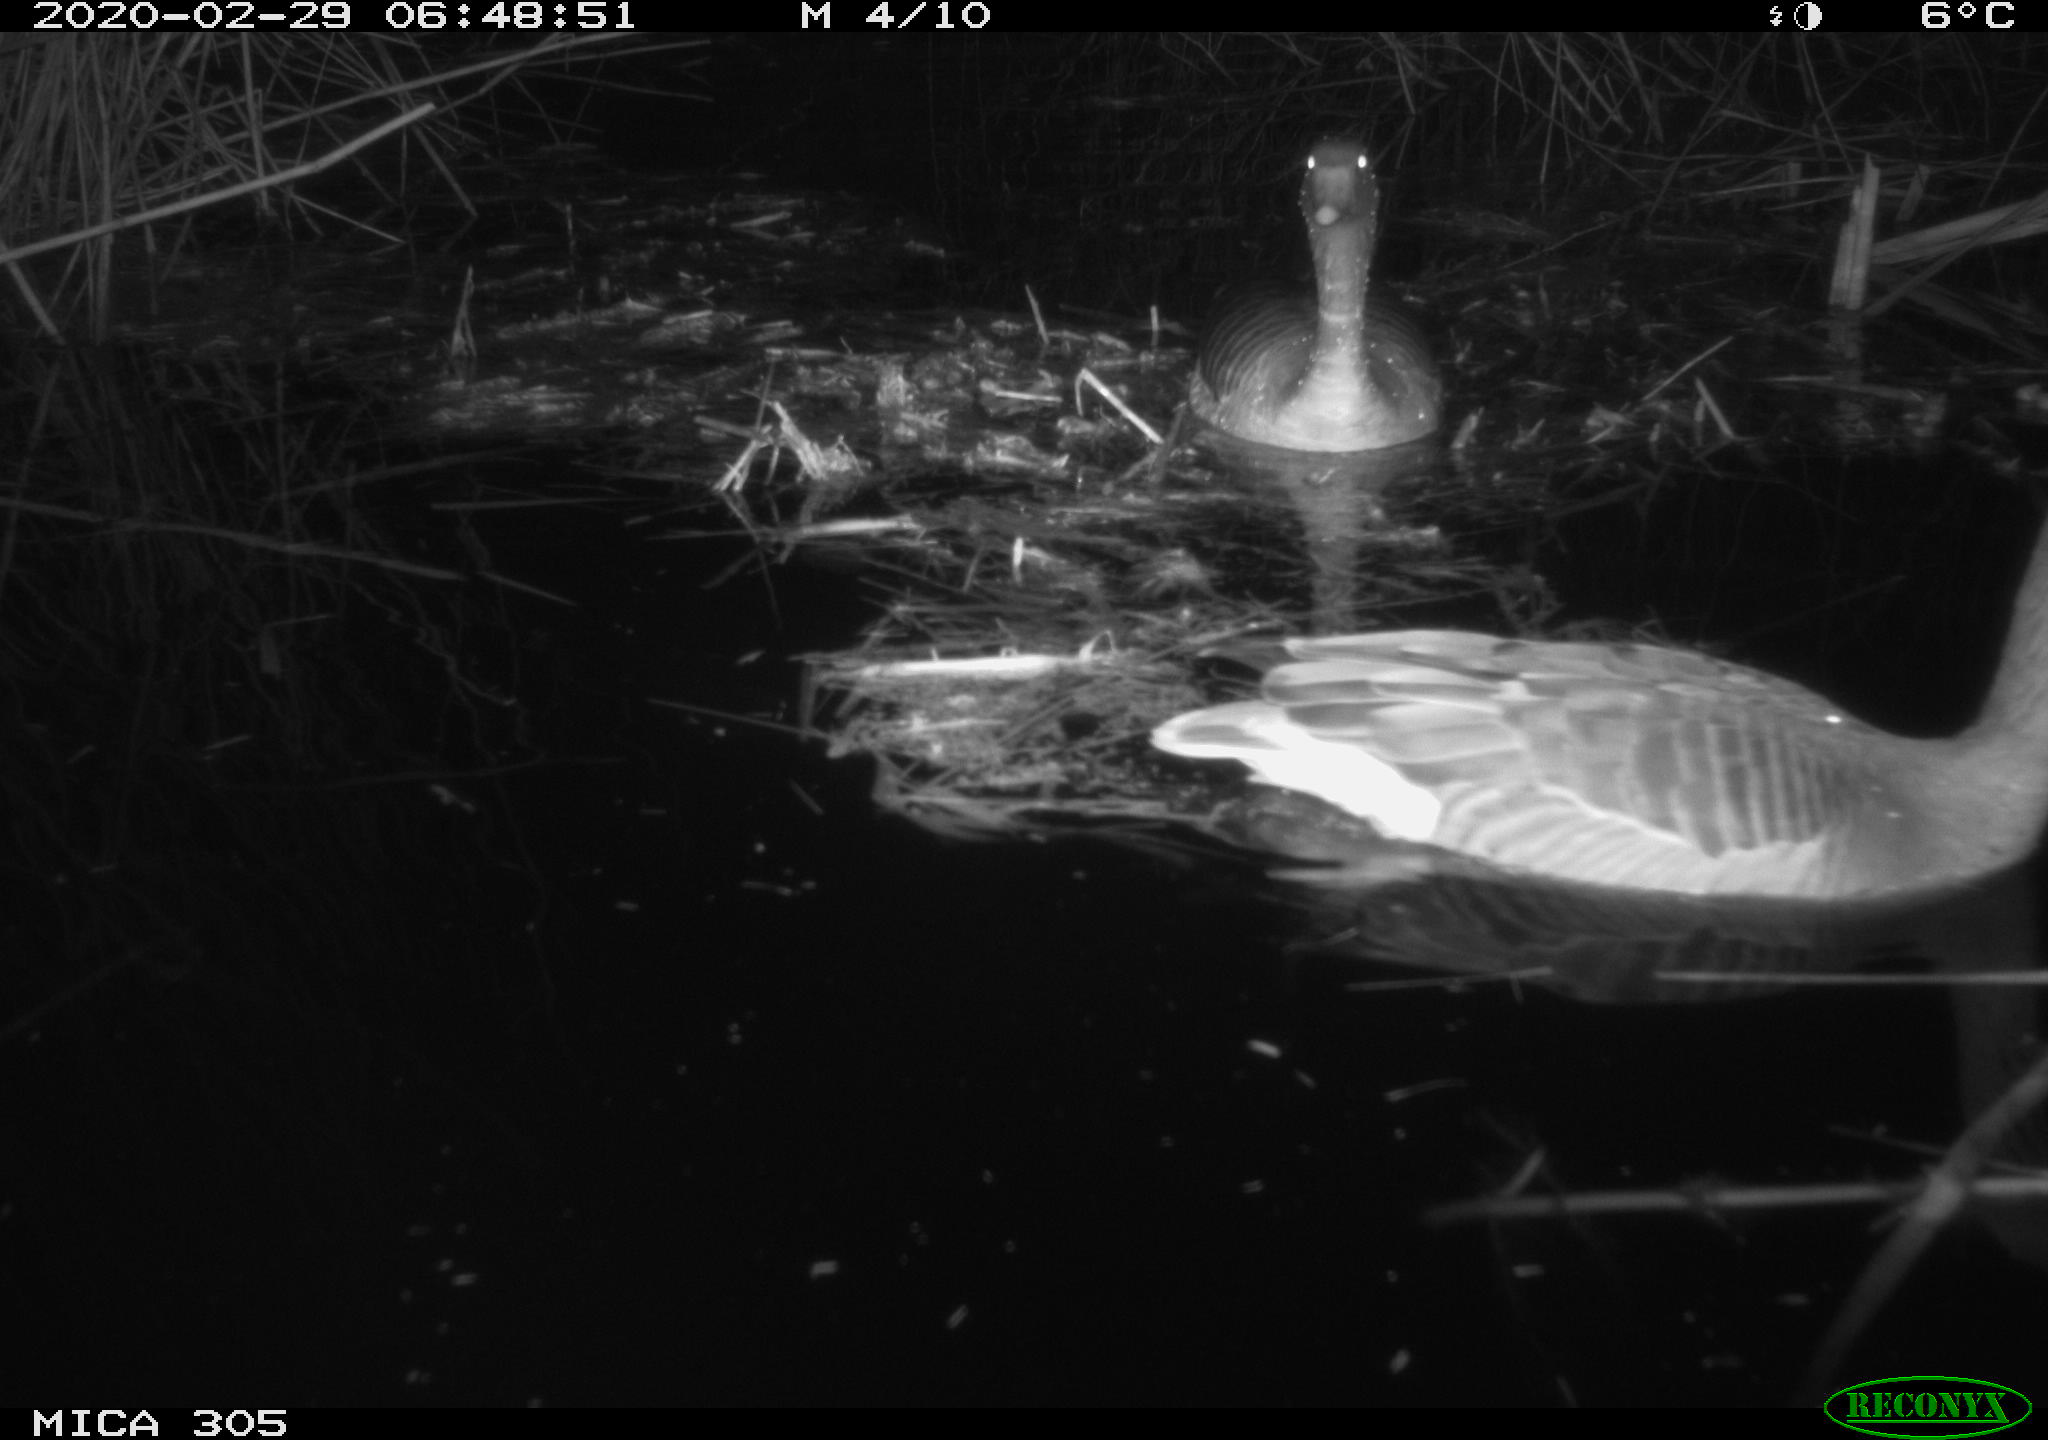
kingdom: Animalia
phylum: Chordata
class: Aves
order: Anseriformes
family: Anatidae
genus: Anser
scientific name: Anser anser
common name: Greylag goose
